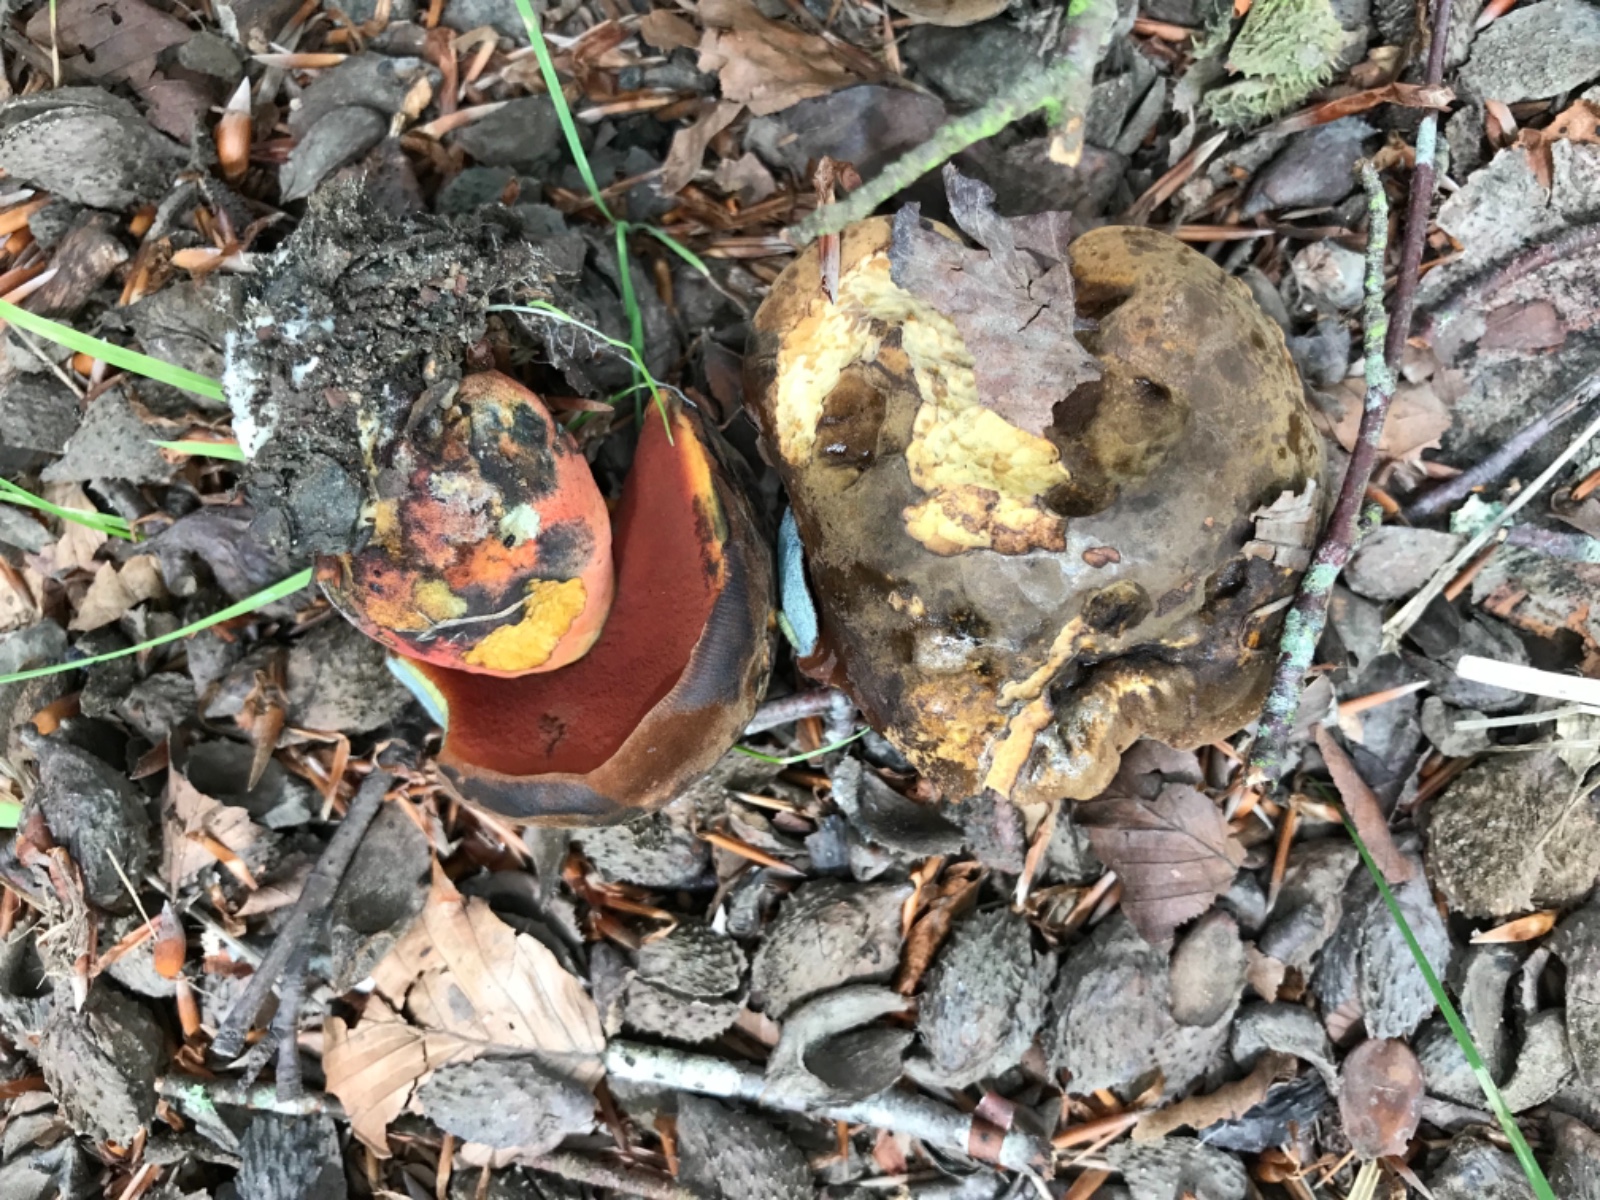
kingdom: Fungi
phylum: Basidiomycota
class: Agaricomycetes
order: Boletales
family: Boletaceae
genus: Neoboletus
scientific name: Neoboletus erythropus
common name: punktstokket indigorørhat
